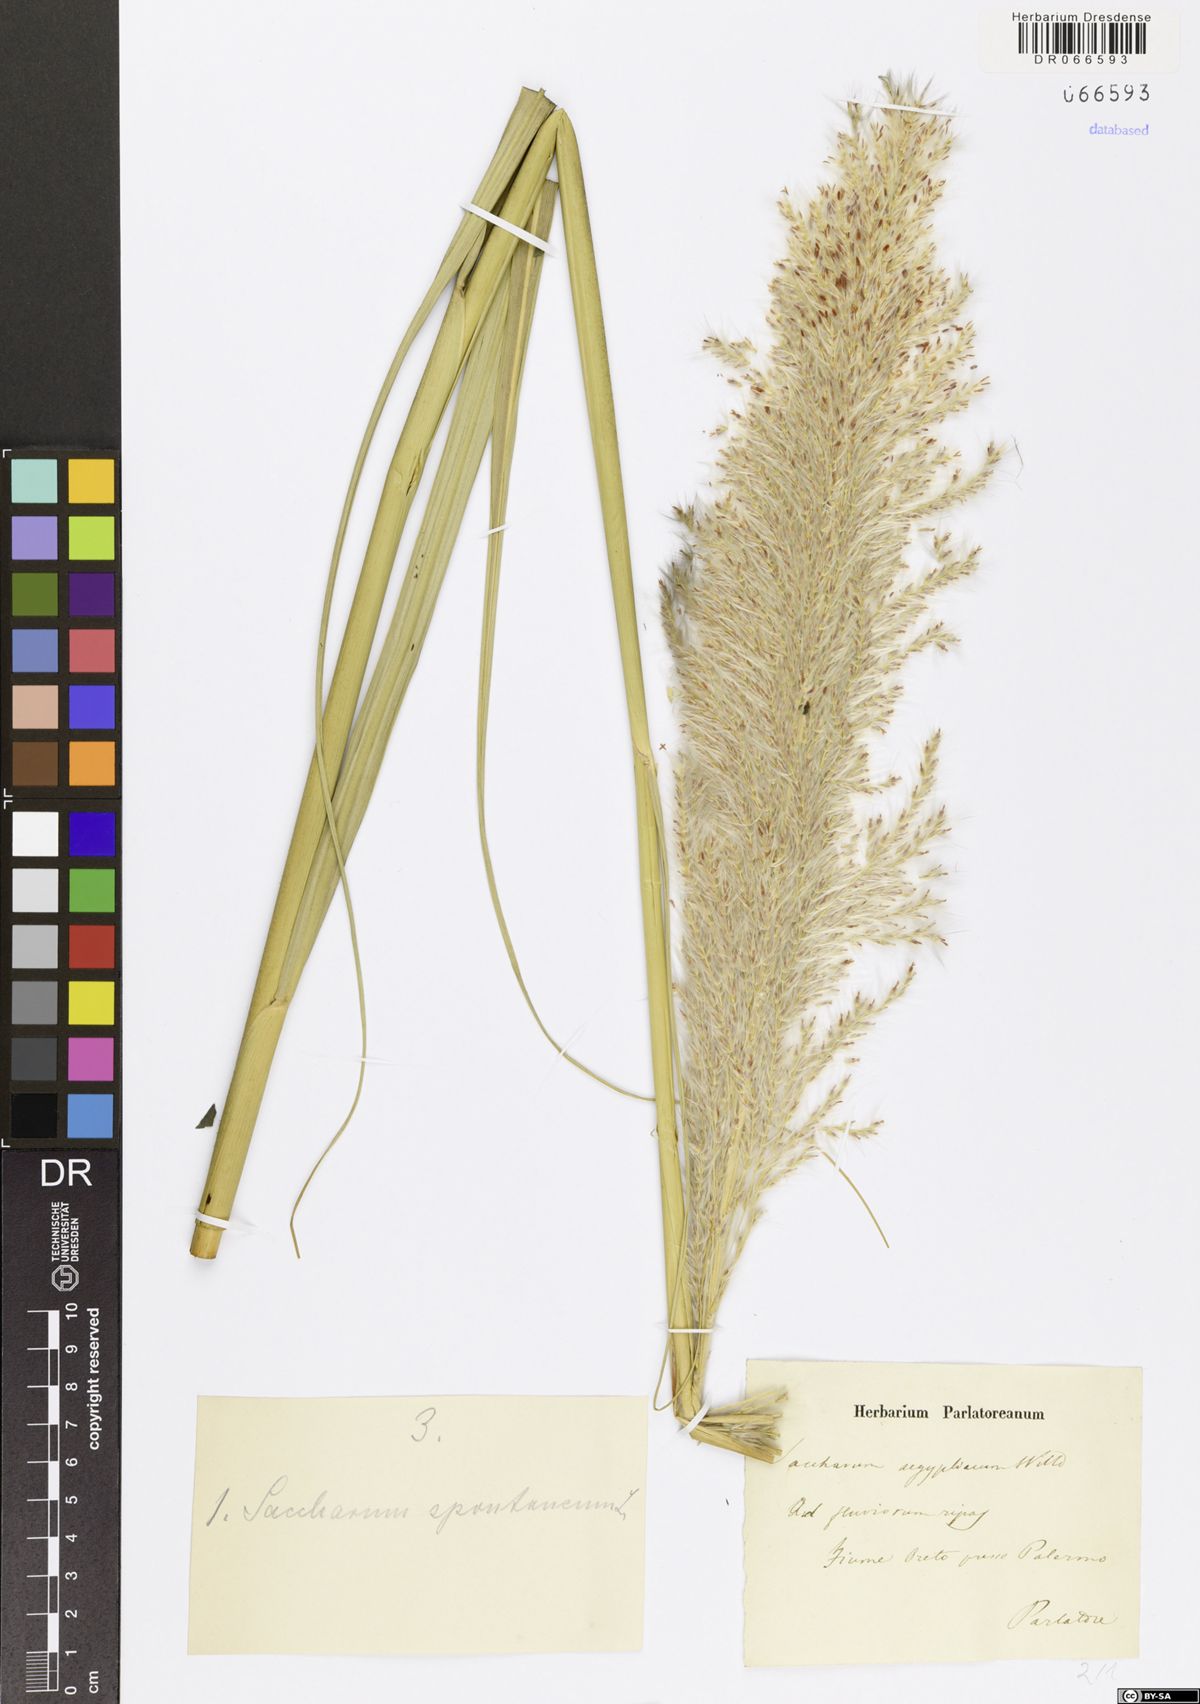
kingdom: Plantae
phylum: Tracheophyta
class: Liliopsida
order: Poales
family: Poaceae
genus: Saccharum
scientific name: Saccharum spontaneum
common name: Wild sugarcane
